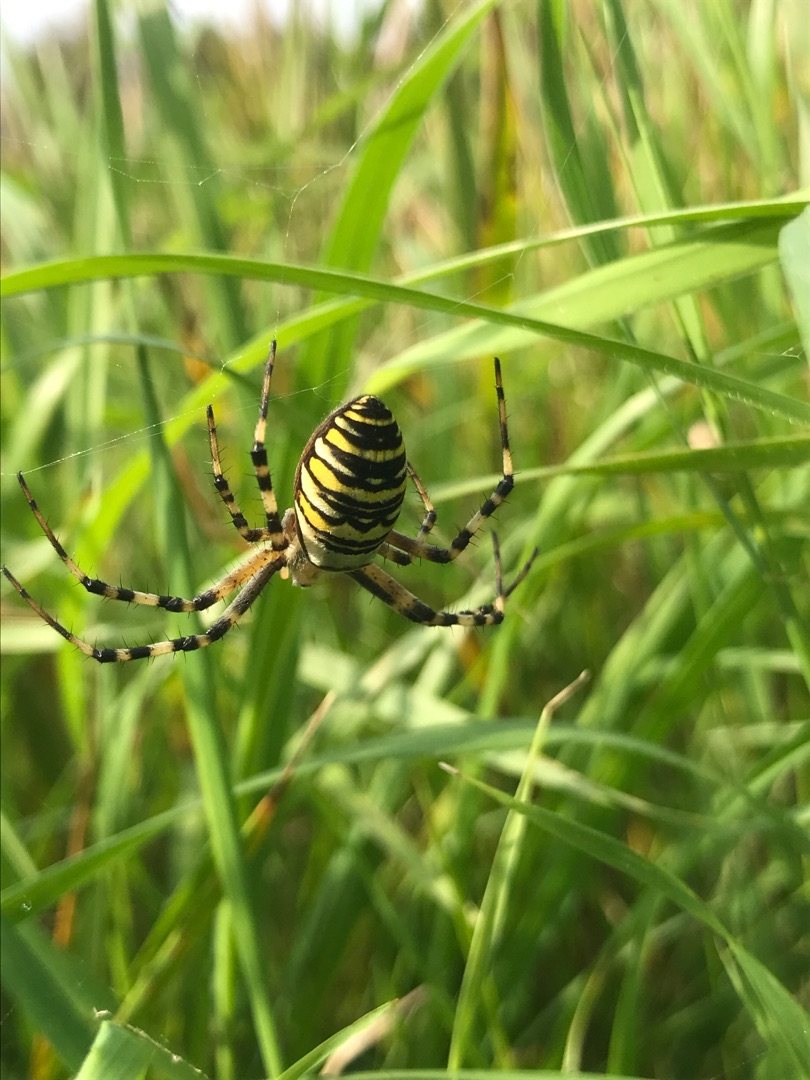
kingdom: Animalia
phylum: Arthropoda
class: Arachnida
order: Araneae
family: Araneidae
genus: Argiope
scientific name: Argiope bruennichi
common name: Hvepseedderkop
